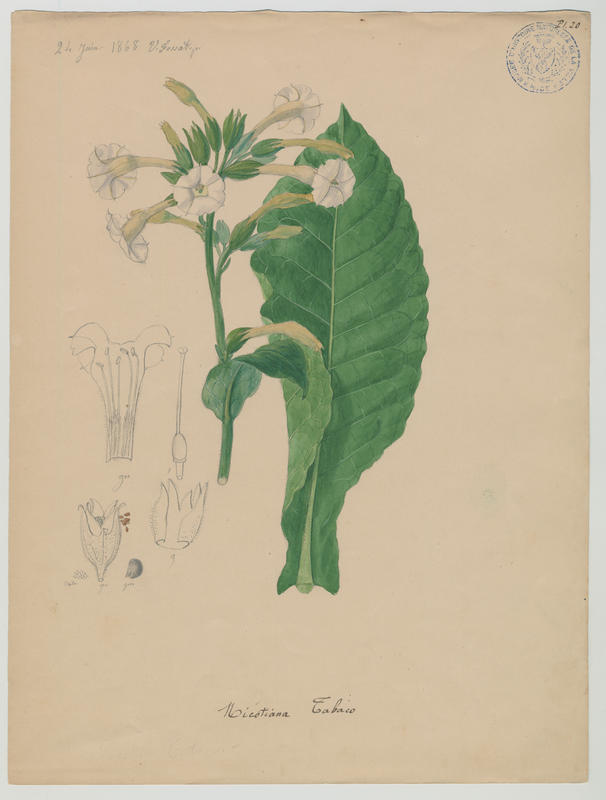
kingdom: Plantae
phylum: Tracheophyta
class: Magnoliopsida
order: Solanales
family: Solanaceae
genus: Nicotiana
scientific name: Nicotiana tabacum
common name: Tobacco
